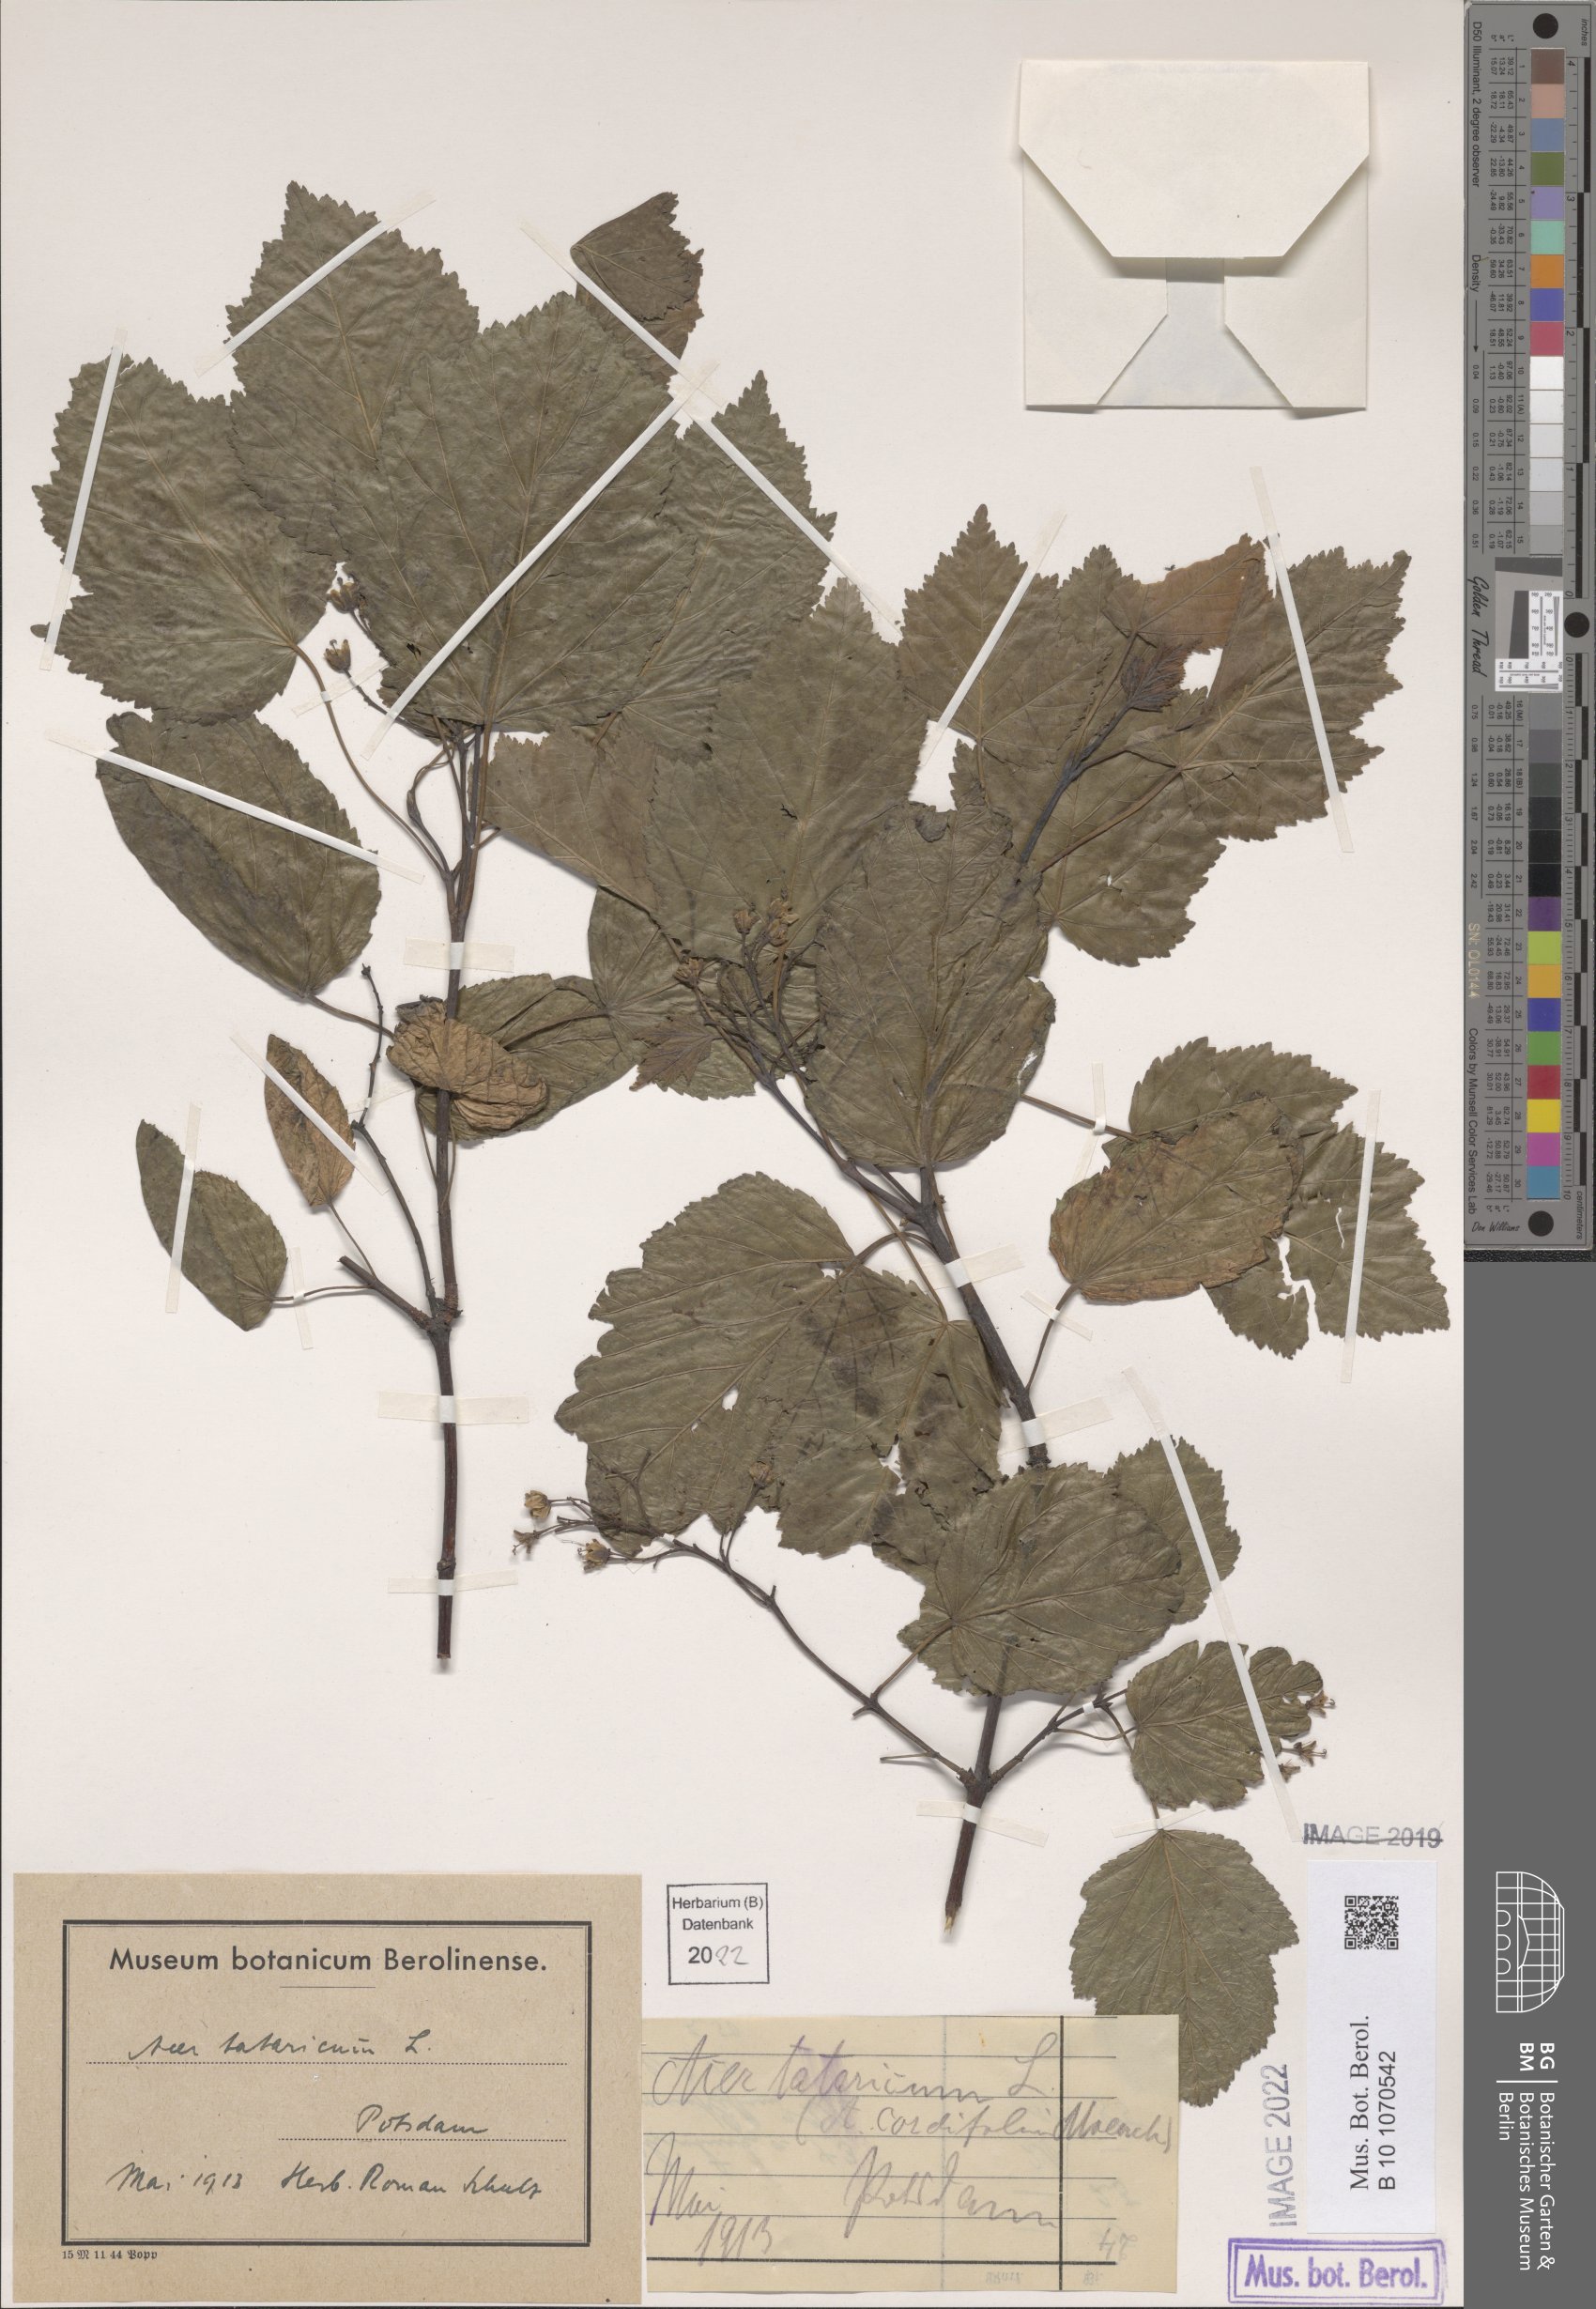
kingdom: Plantae
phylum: Tracheophyta
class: Magnoliopsida
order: Sapindales
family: Sapindaceae
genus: Acer
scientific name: Acer tataricum
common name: Tartar maple
